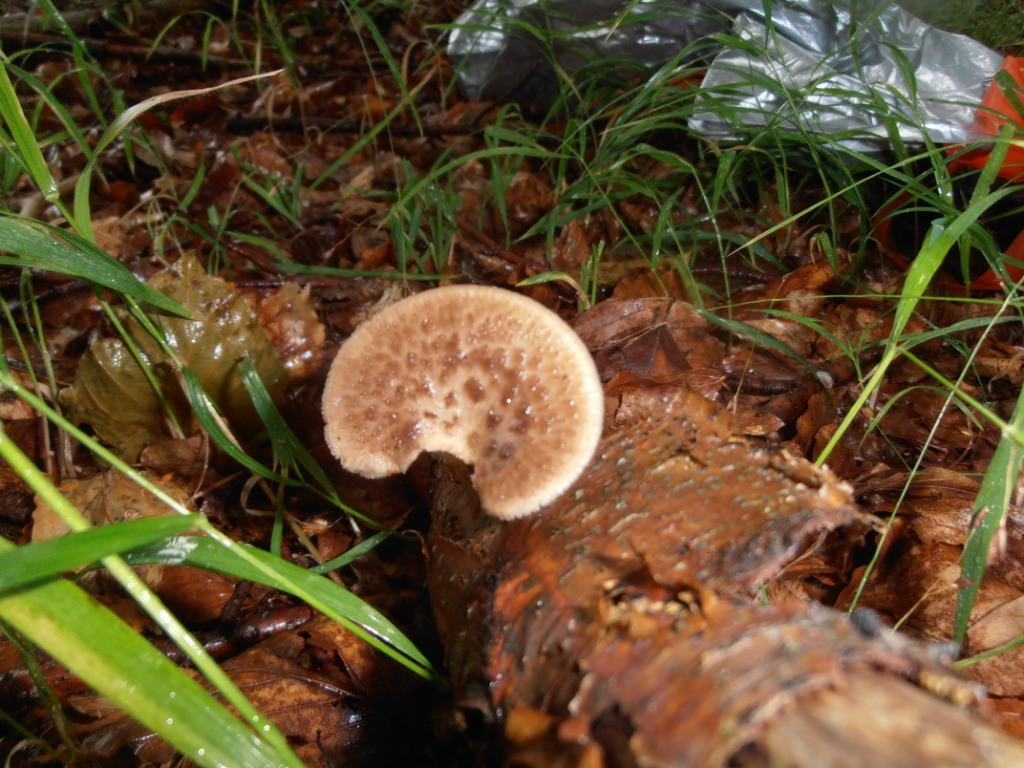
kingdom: Fungi
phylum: Basidiomycota
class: Agaricomycetes
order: Polyporales
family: Polyporaceae
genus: Polyporus
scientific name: Polyporus tuberaster
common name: knoldet stilkporesvamp
